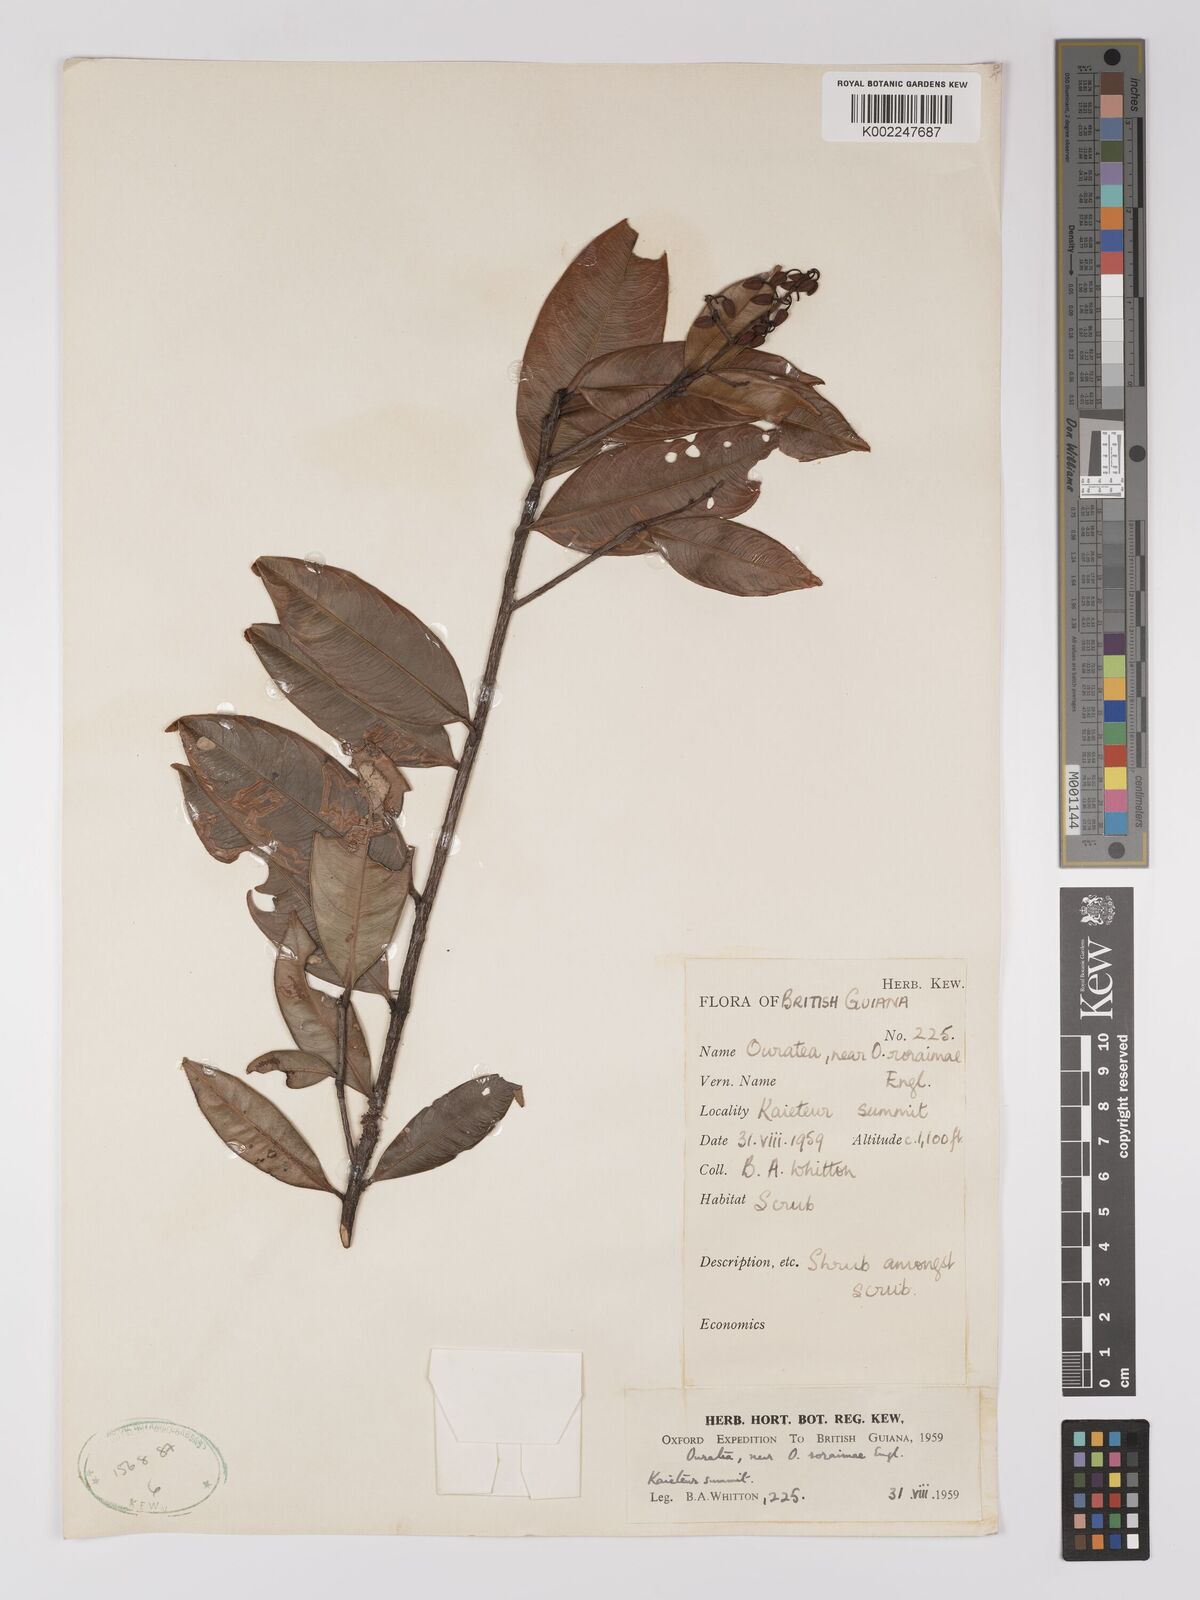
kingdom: Plantae
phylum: Tracheophyta
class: Magnoliopsida
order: Malpighiales
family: Ochnaceae
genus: Ouratea
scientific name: Ouratea roraimae
